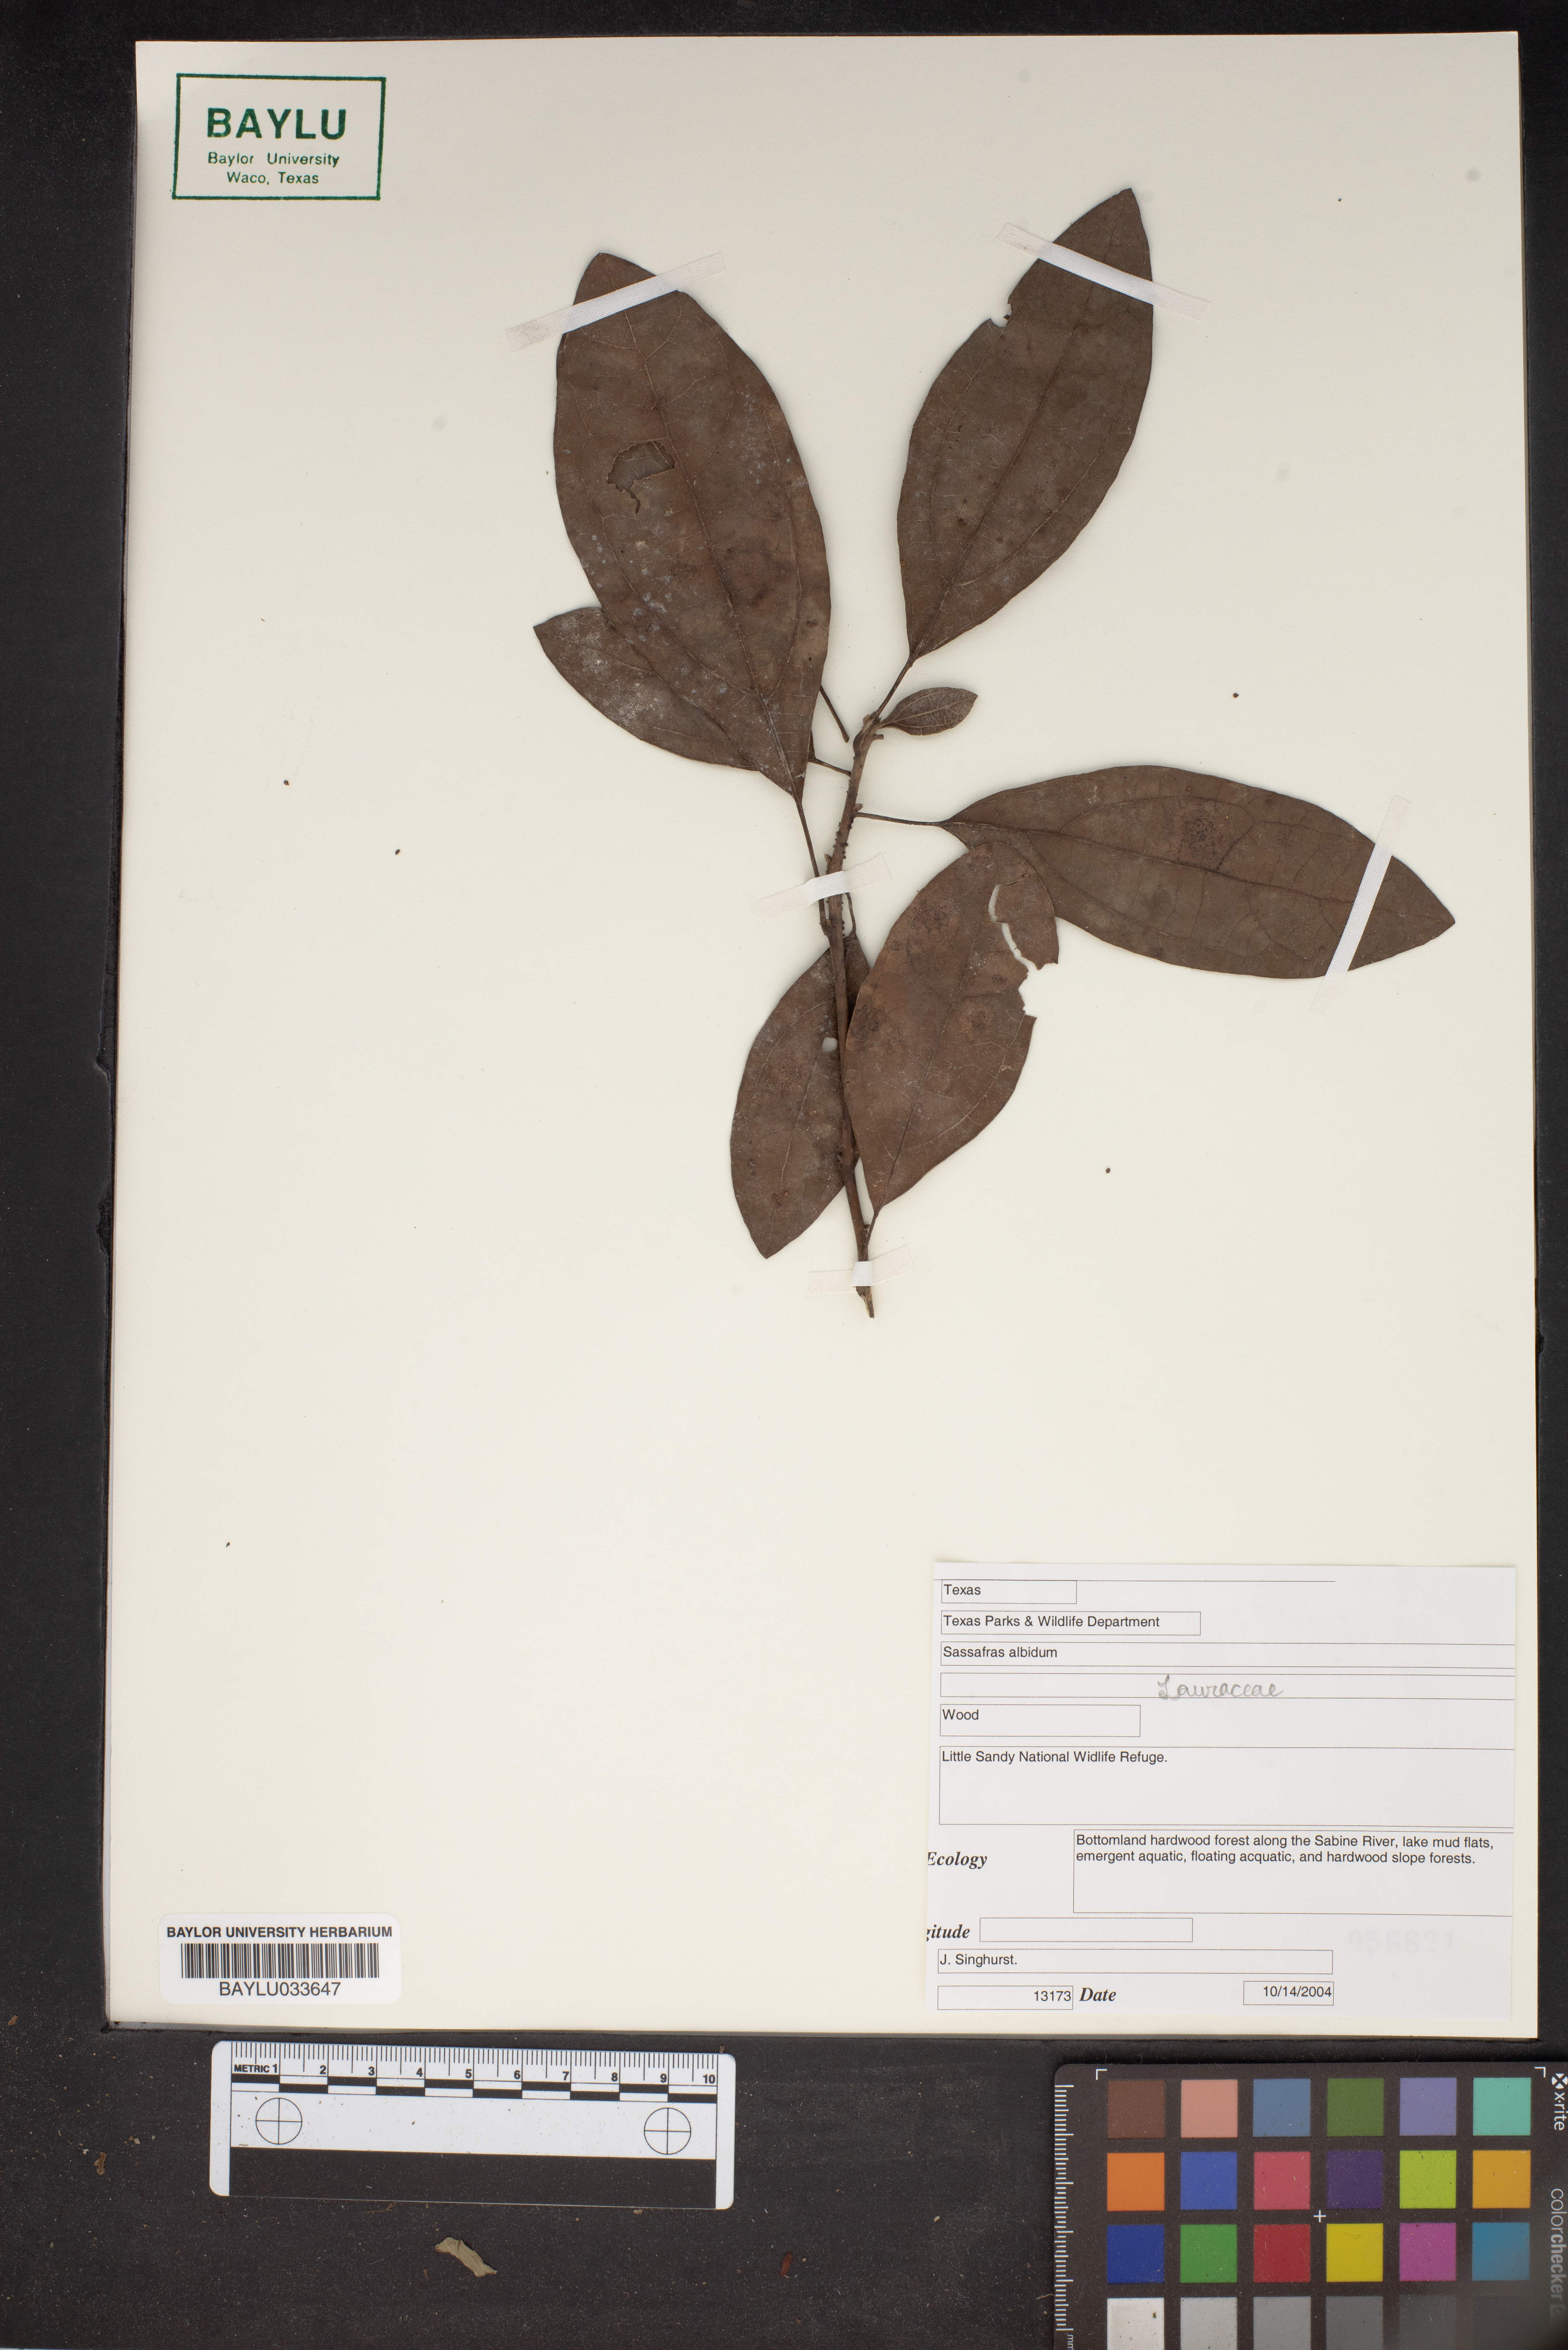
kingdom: Plantae
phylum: Tracheophyta
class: Magnoliopsida
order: Laurales
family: Lauraceae
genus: Sassafras
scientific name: Sassafras albidum
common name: Sassafras
